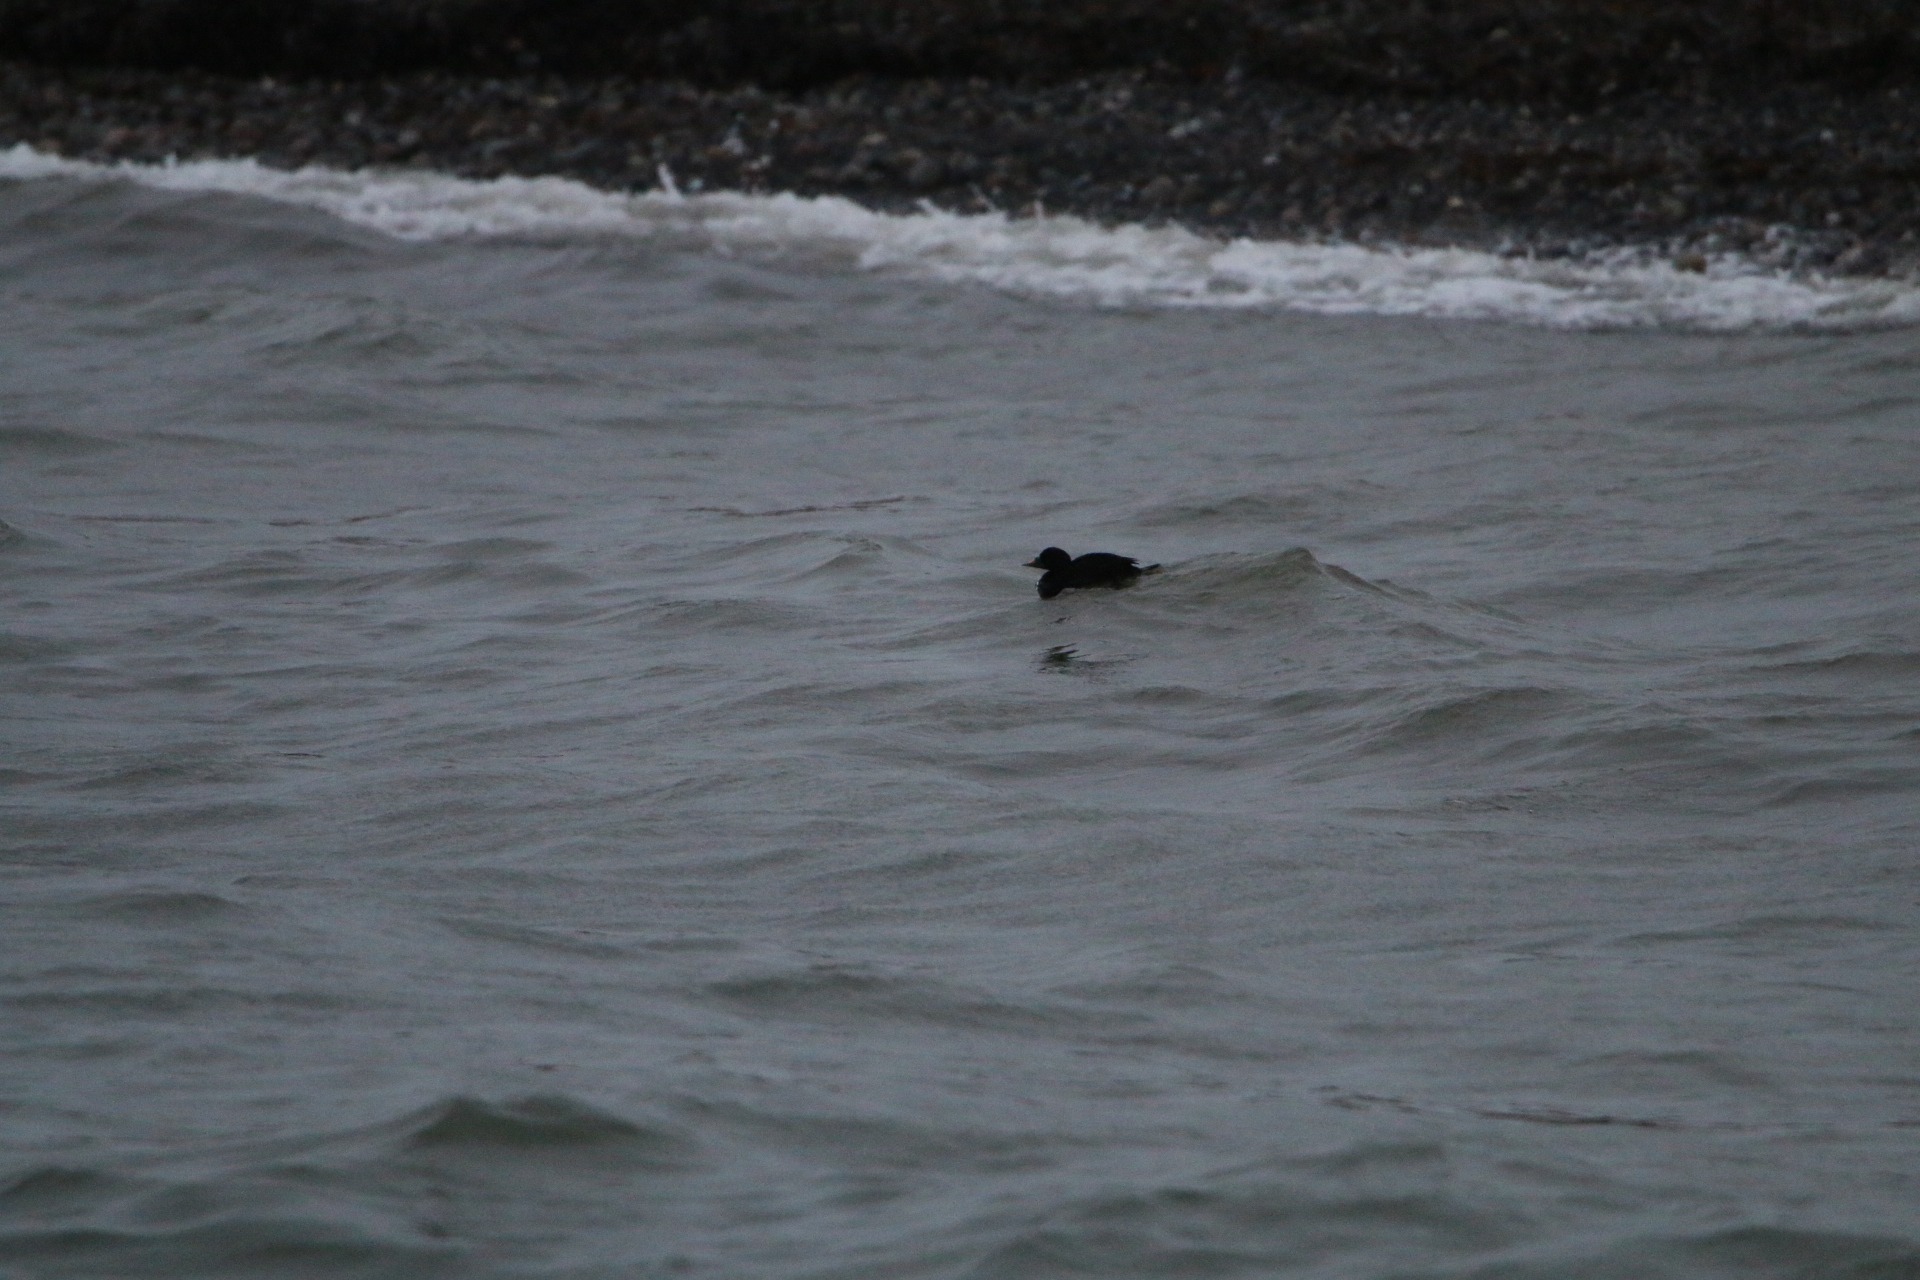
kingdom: Animalia
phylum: Chordata
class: Aves
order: Anseriformes
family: Anatidae
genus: Melanitta
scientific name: Melanitta nigra
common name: Sortand
